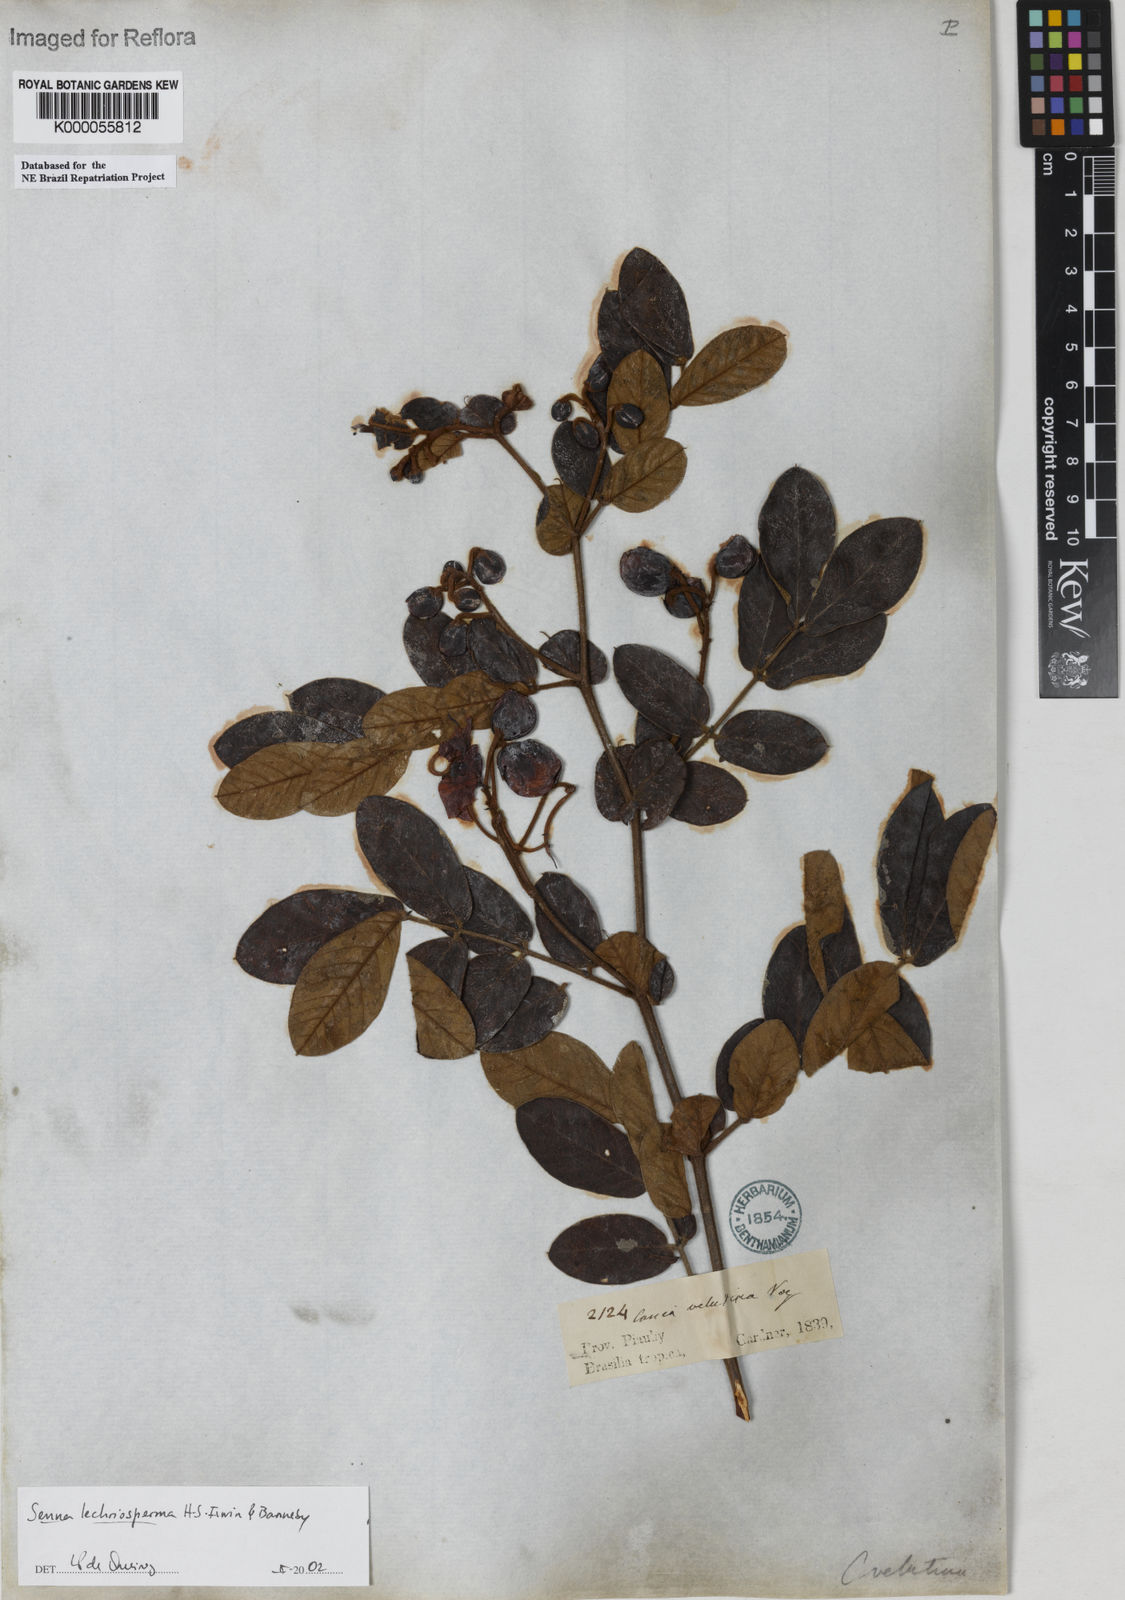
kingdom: Plantae
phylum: Tracheophyta
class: Magnoliopsida
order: Fabales
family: Fabaceae
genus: Senna
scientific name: Senna lechriosperma
